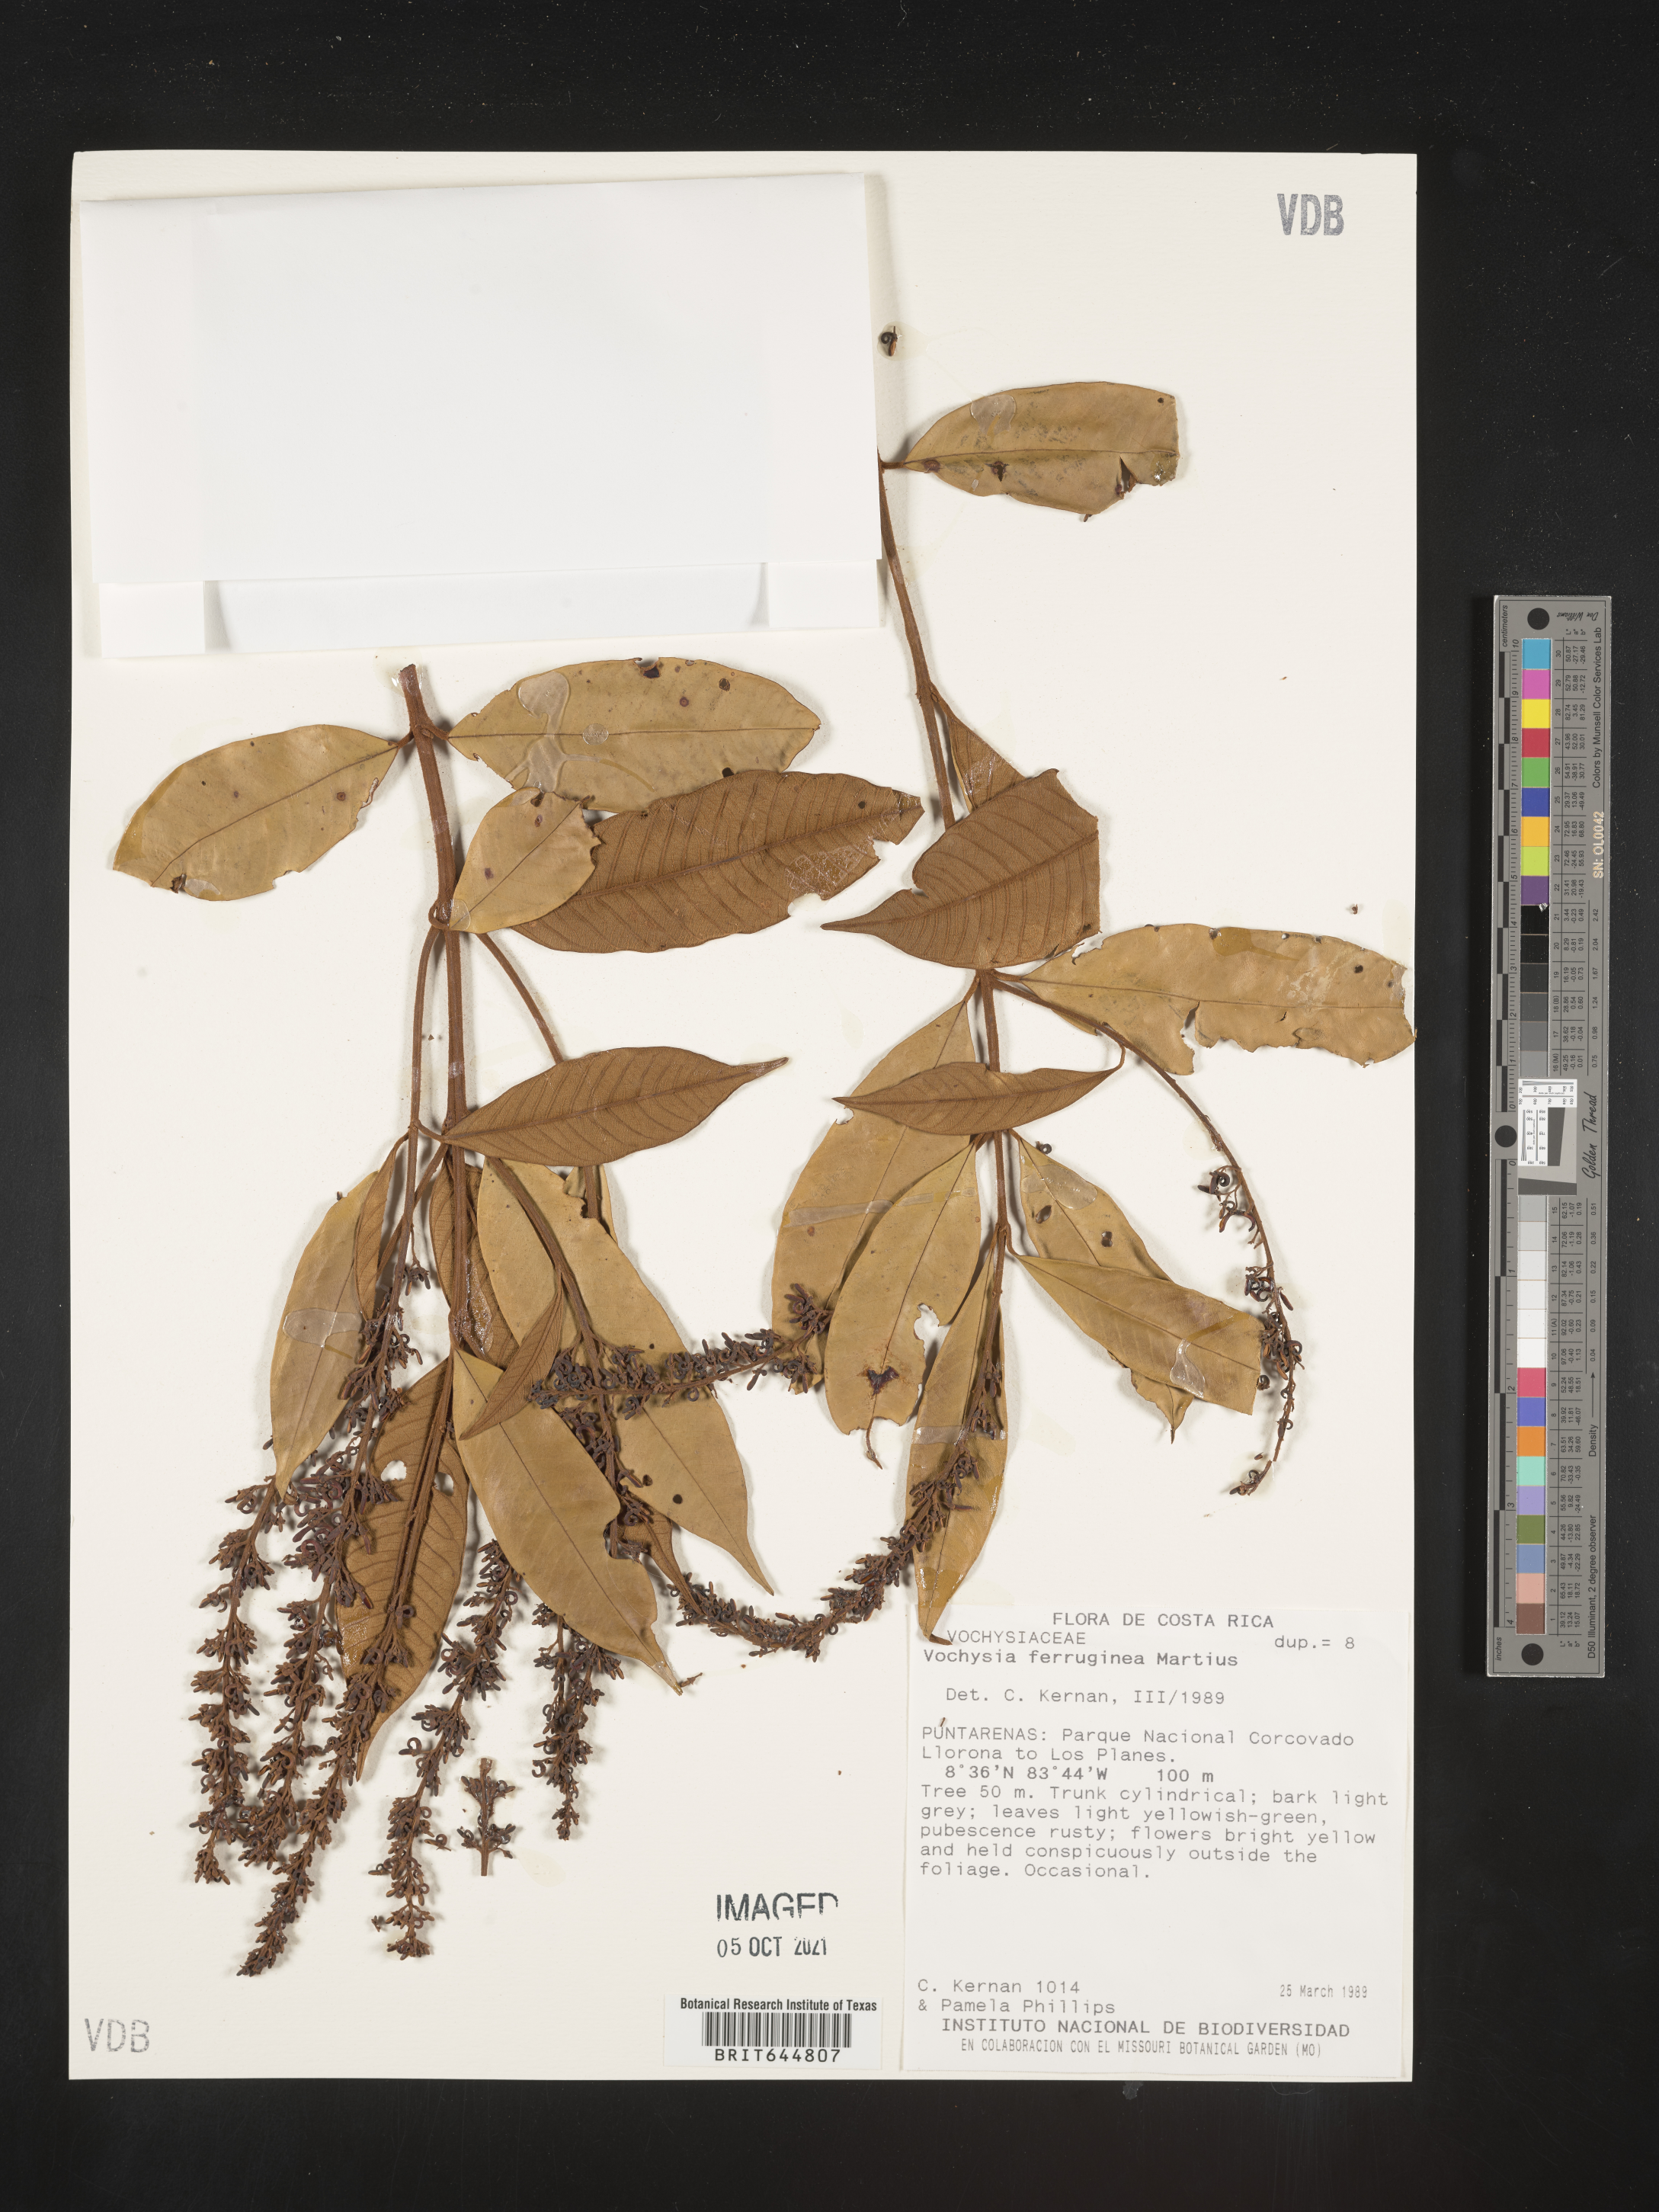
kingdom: Plantae
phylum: Tracheophyta
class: Magnoliopsida
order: Myrtales
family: Vochysiaceae
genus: Vochysia
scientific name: Vochysia
